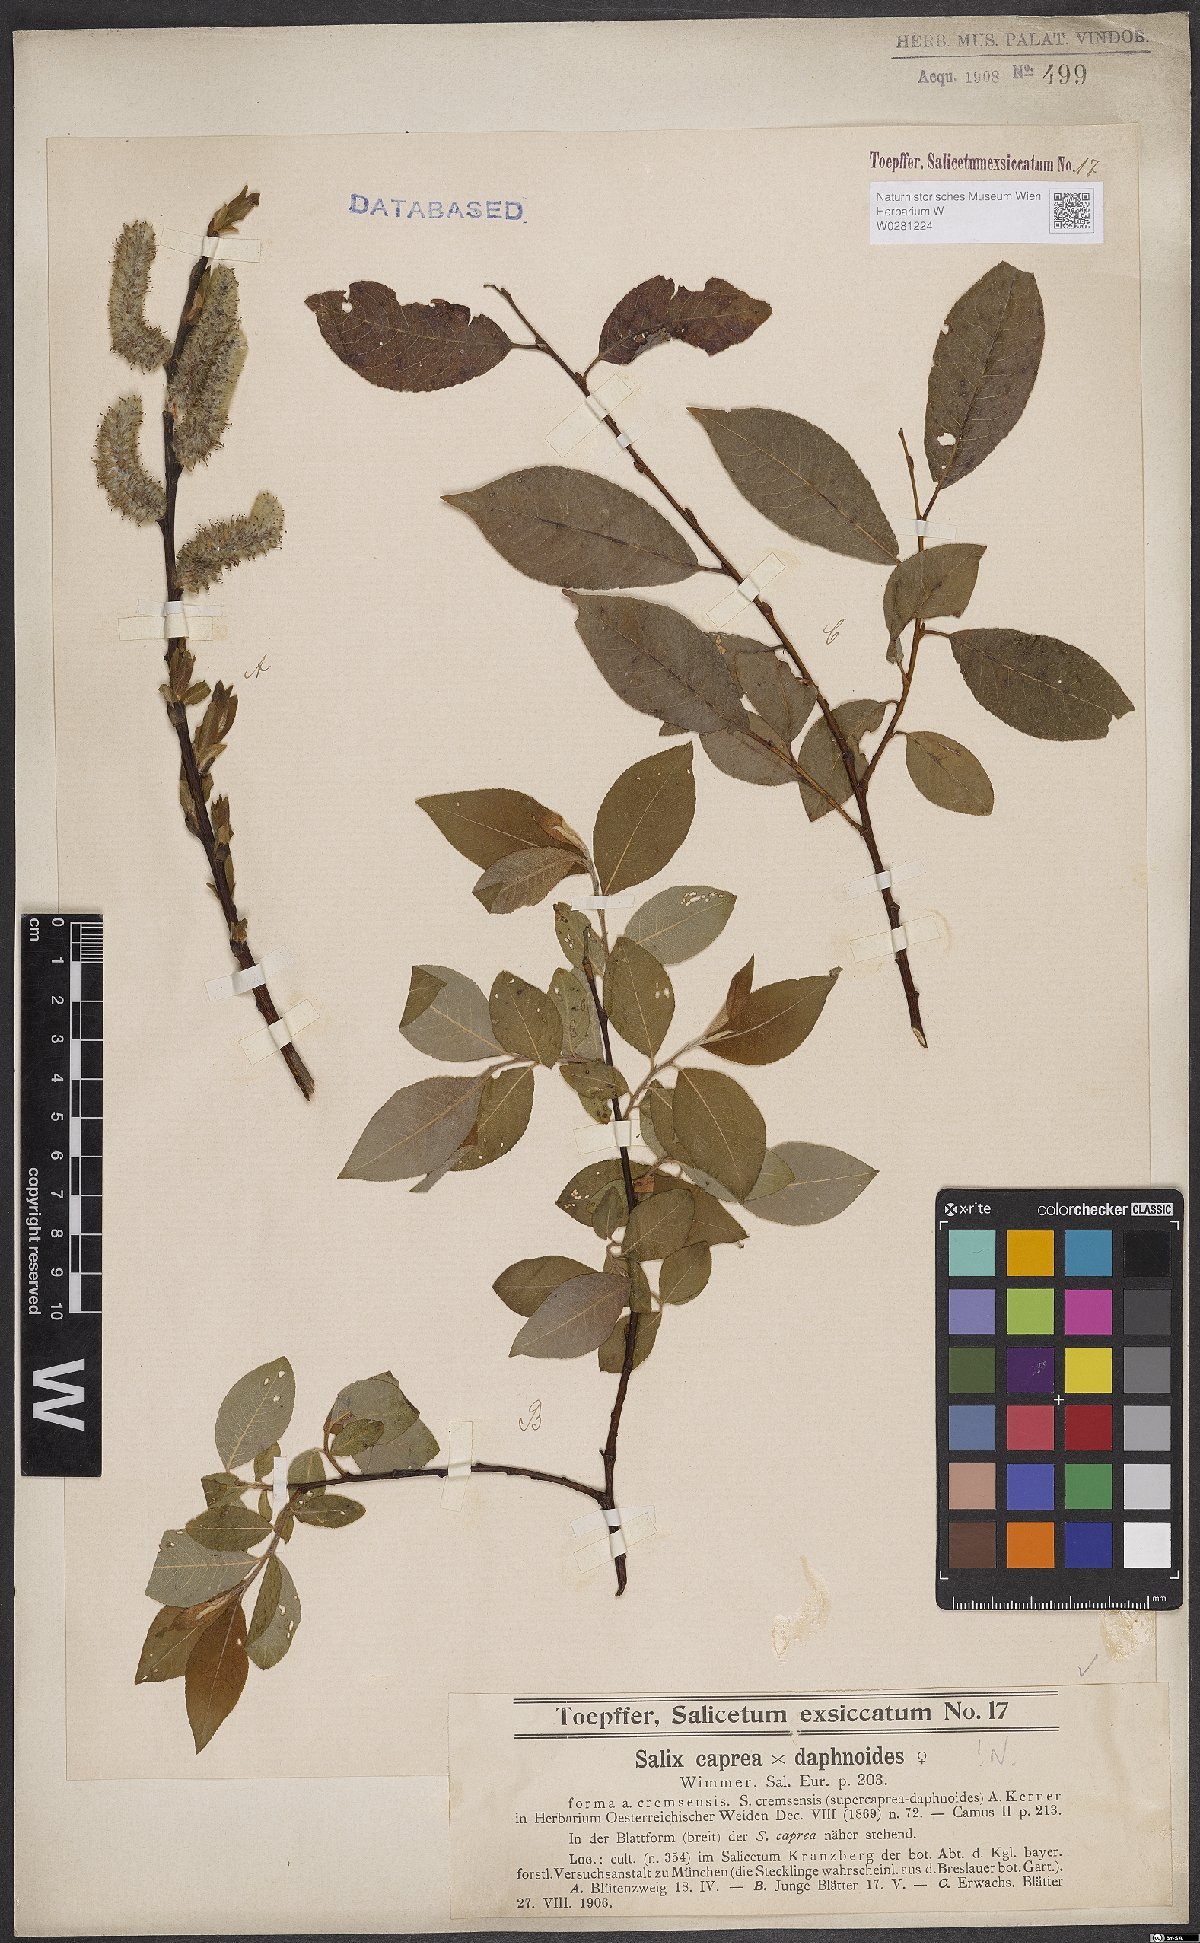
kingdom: Plantae
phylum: Tracheophyta
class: Magnoliopsida
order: Malpighiales
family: Salicaceae
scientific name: Salicaceae
